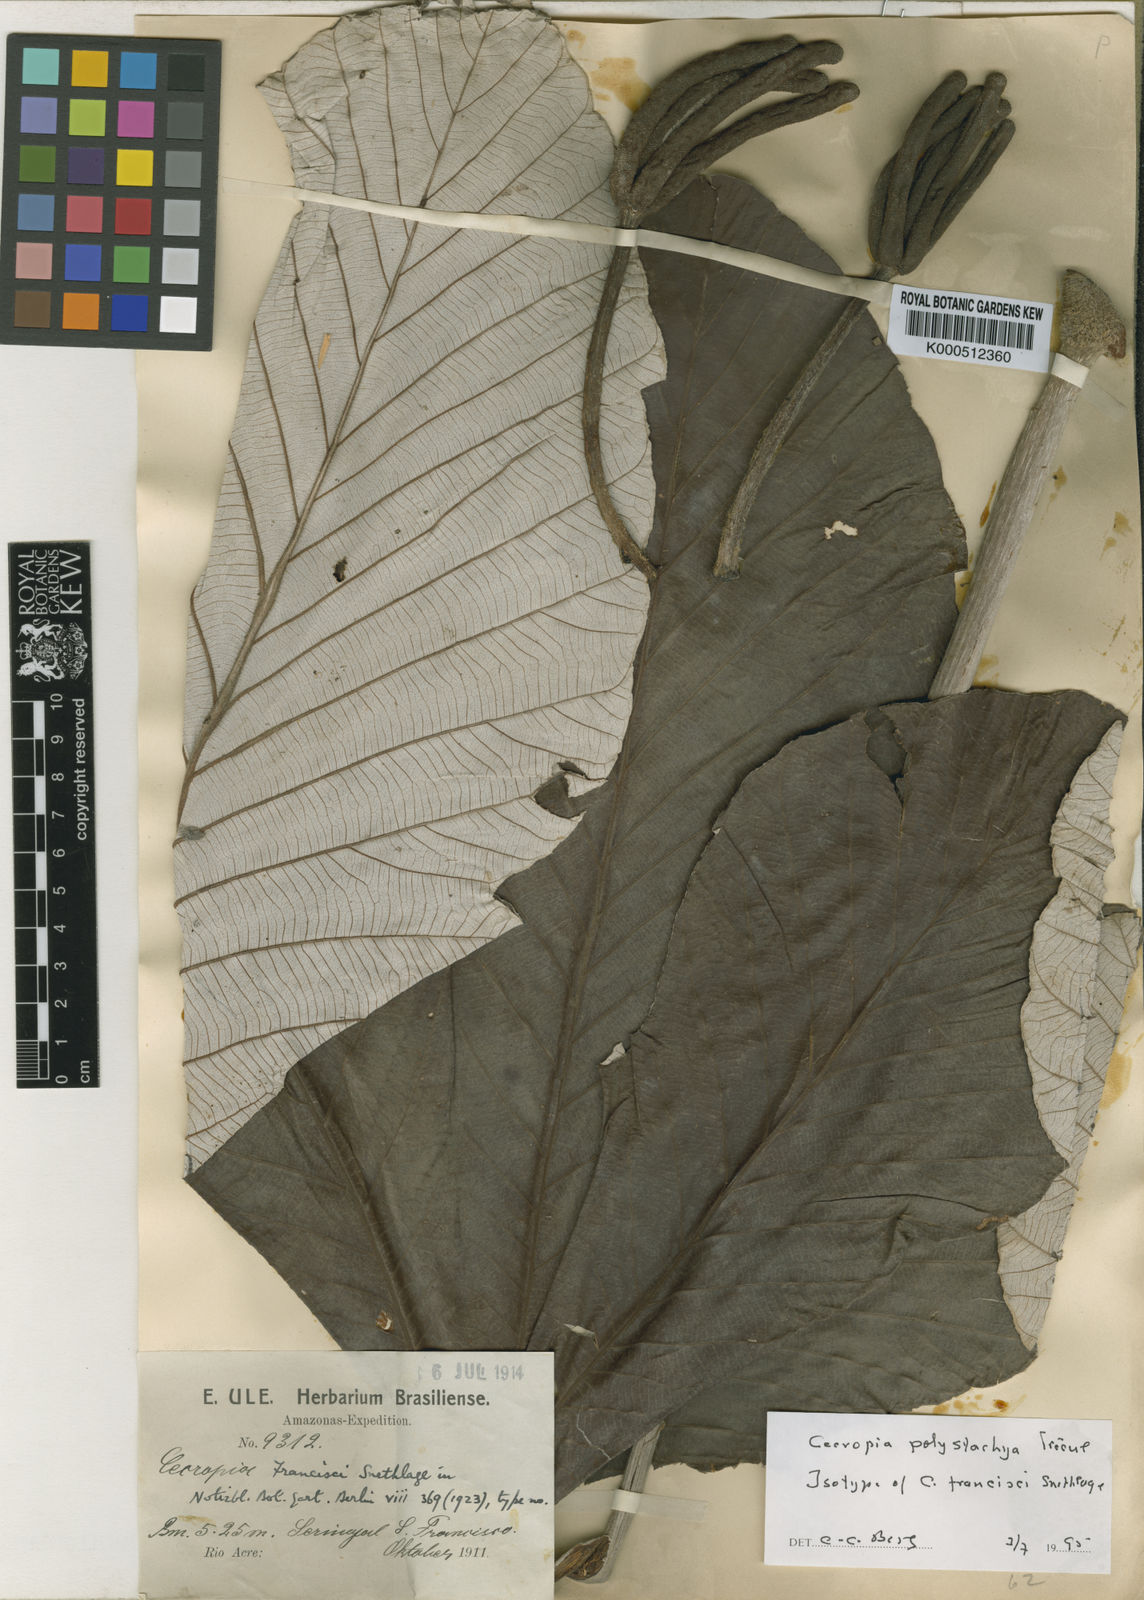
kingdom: Plantae
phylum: Tracheophyta
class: Magnoliopsida
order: Rosales
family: Urticaceae
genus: Cecropia
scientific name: Cecropia
